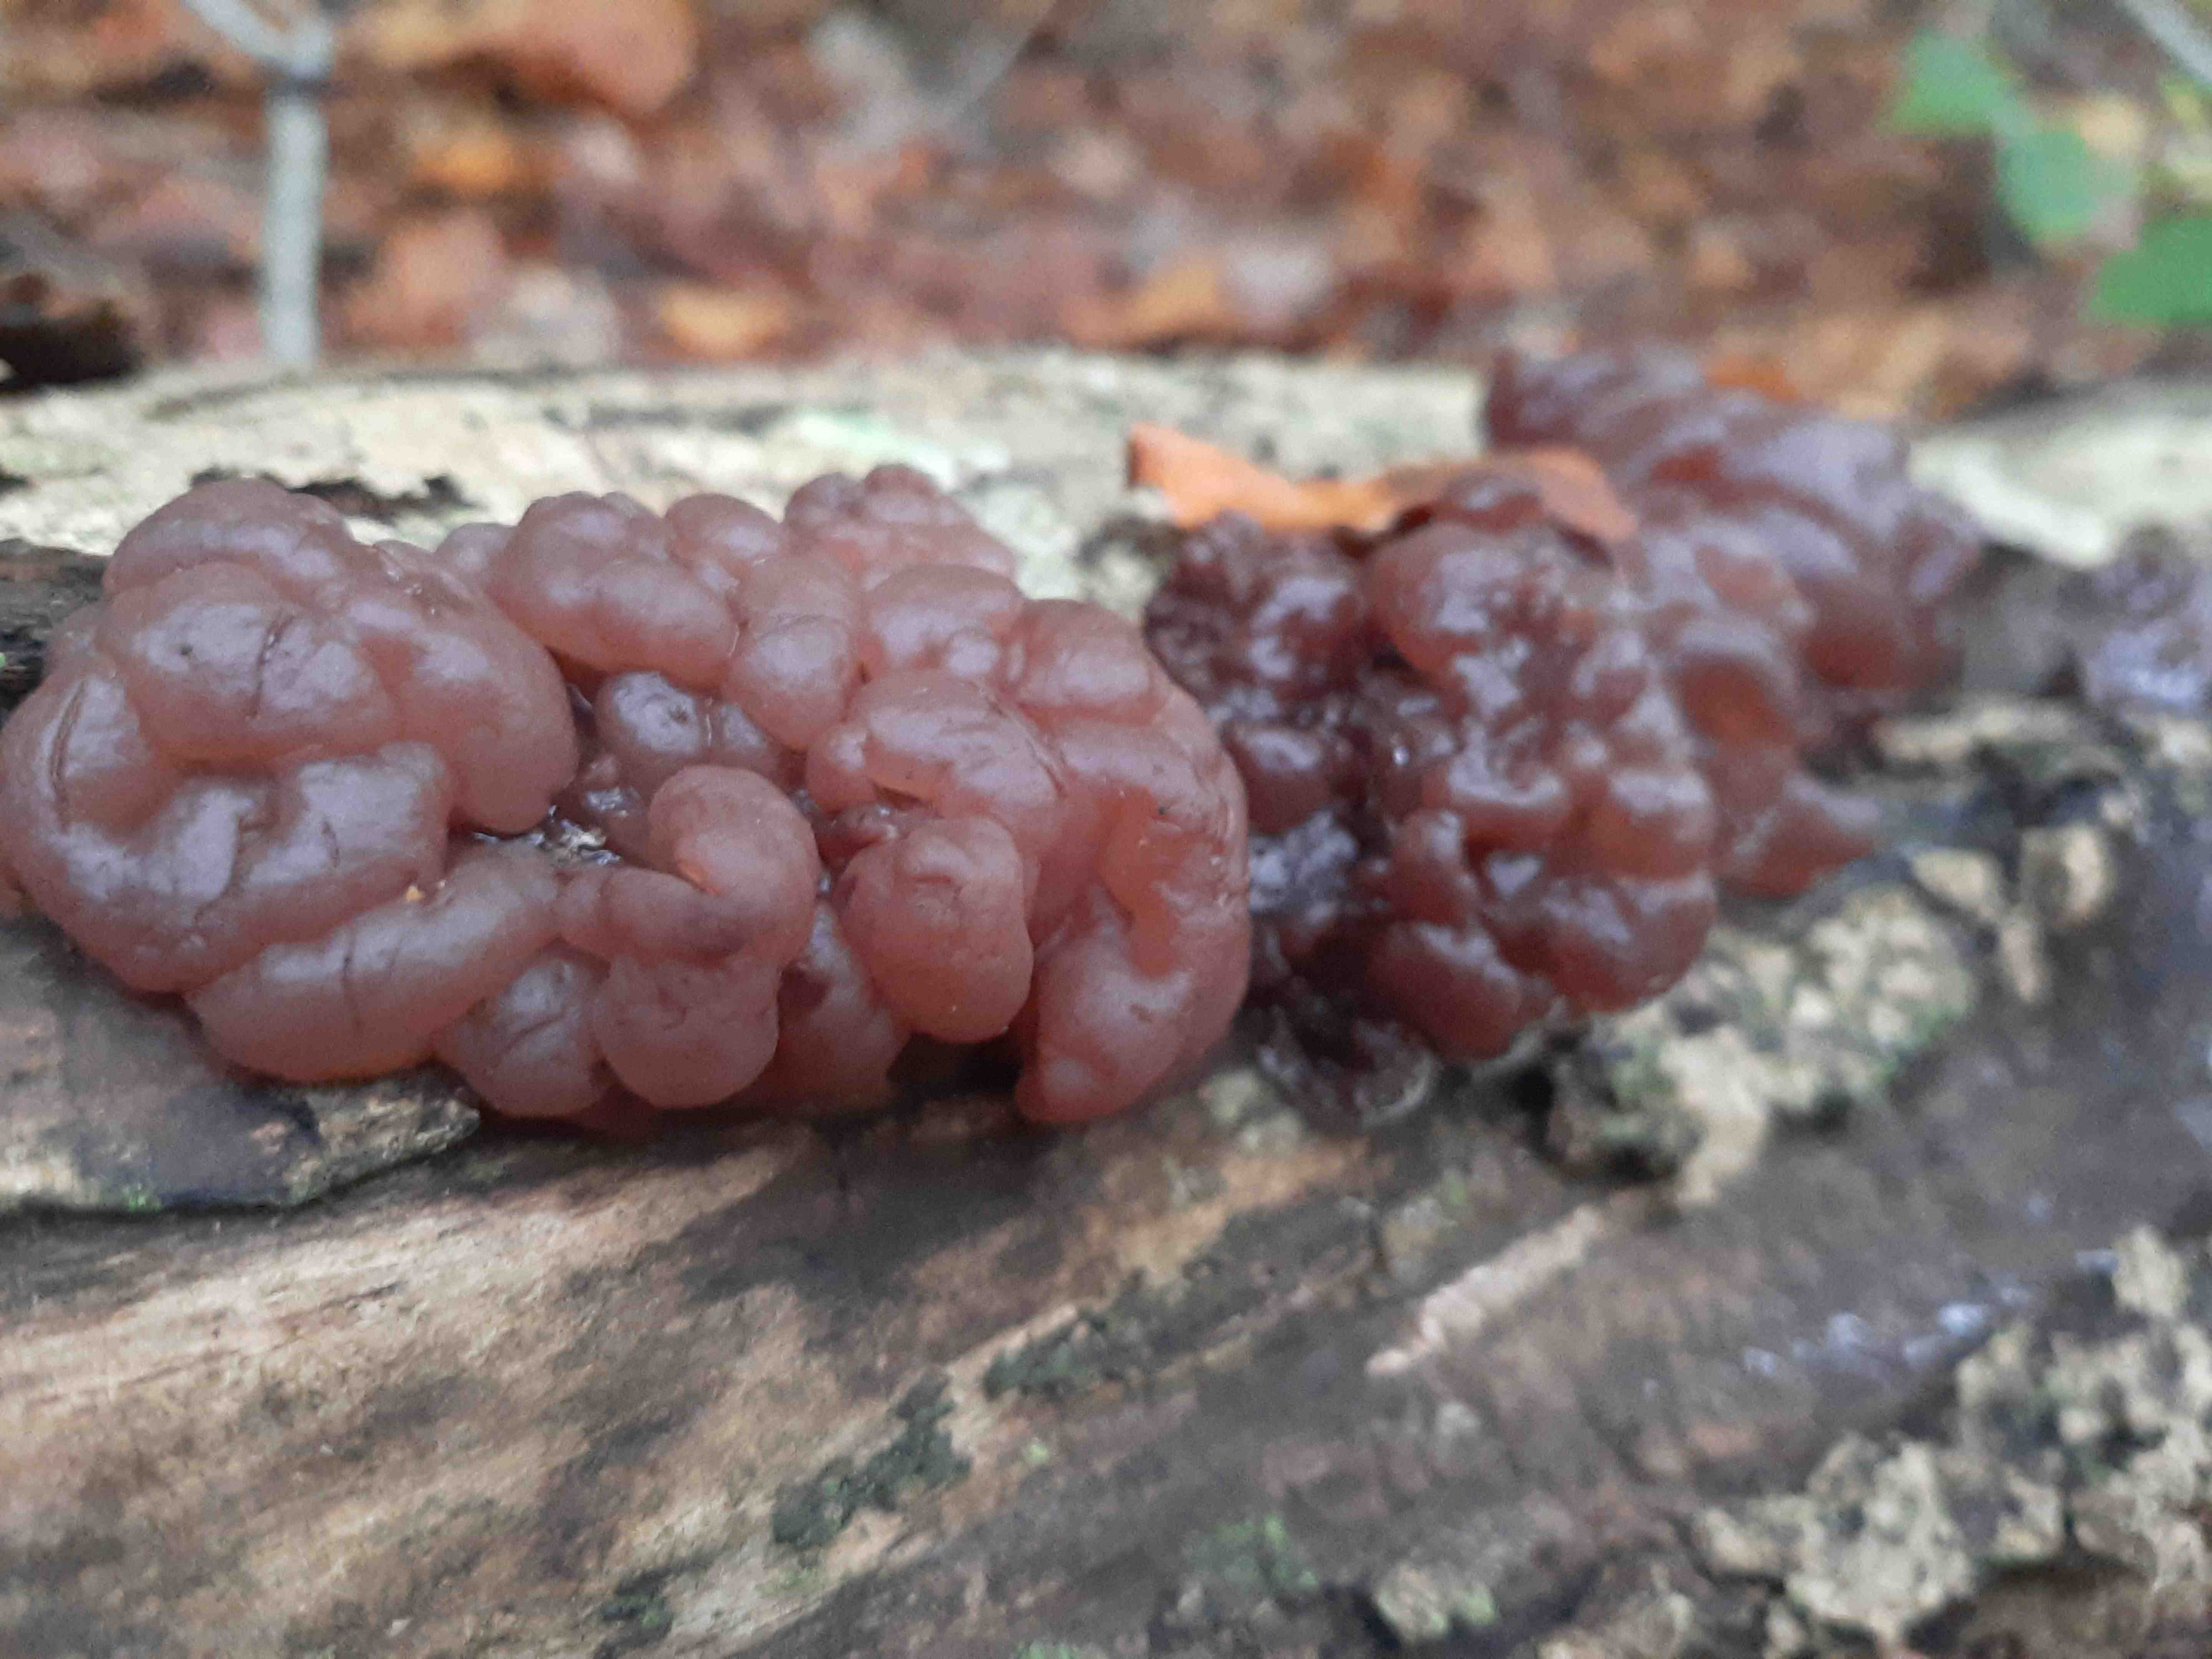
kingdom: Fungi
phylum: Ascomycota
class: Leotiomycetes
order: Helotiales
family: Gelatinodiscaceae
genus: Ascotremella
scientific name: Ascotremella faginea
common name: hjerne-bævreskive
